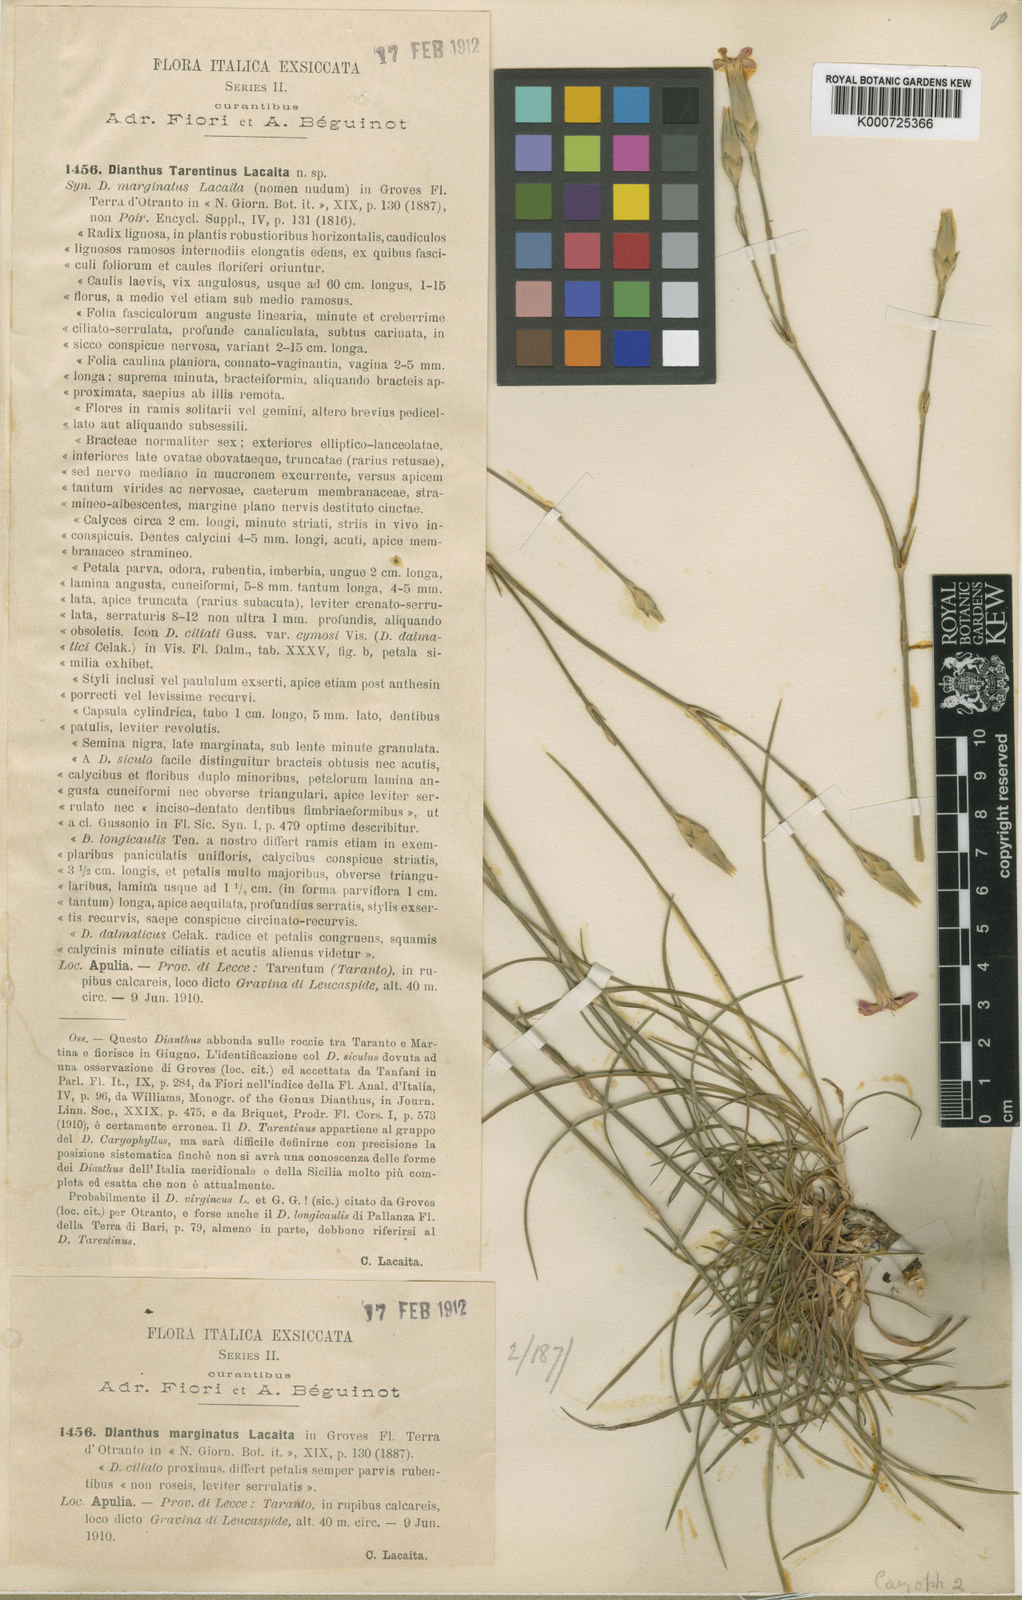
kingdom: Plantae
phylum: Tracheophyta
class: Magnoliopsida
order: Caryophyllales
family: Caryophyllaceae
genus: Dianthus
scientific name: Dianthus tarentinus
